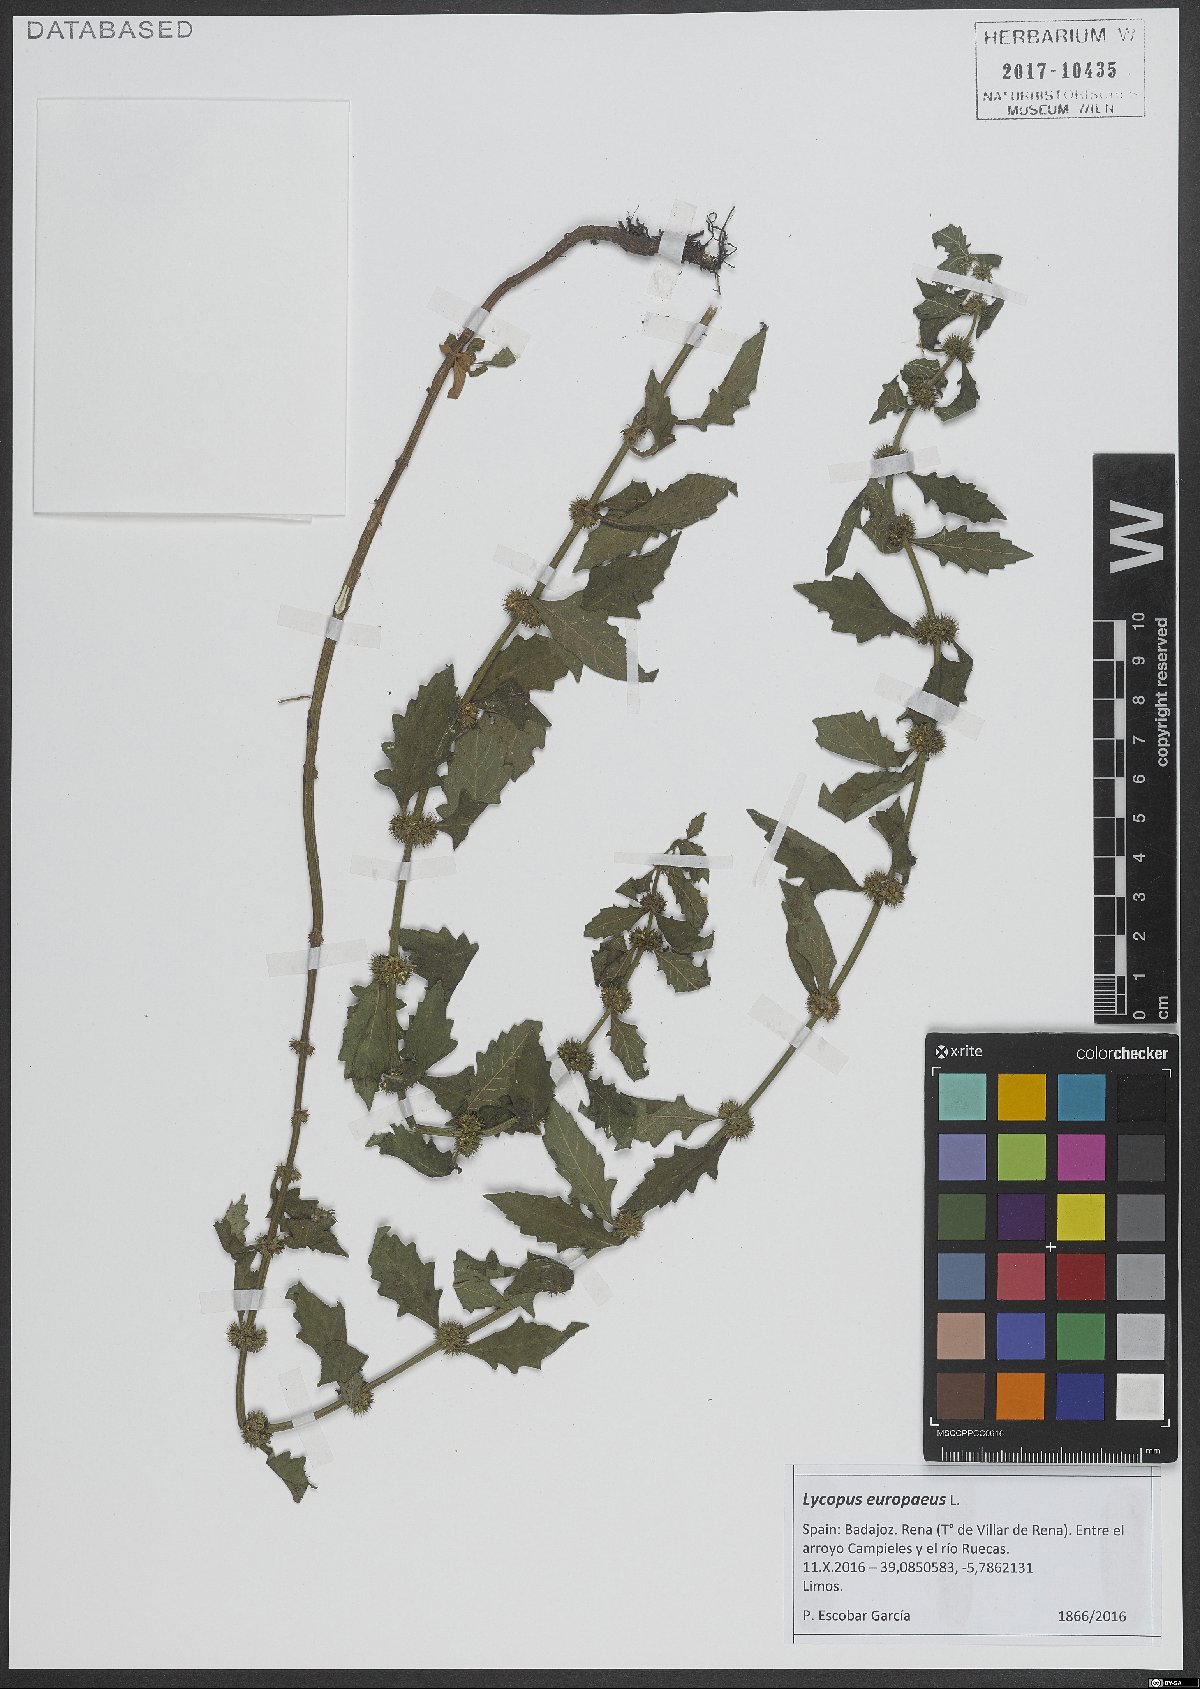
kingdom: Plantae
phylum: Tracheophyta
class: Magnoliopsida
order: Lamiales
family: Lamiaceae
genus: Lycopus
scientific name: Lycopus europaeus
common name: European bugleweed
